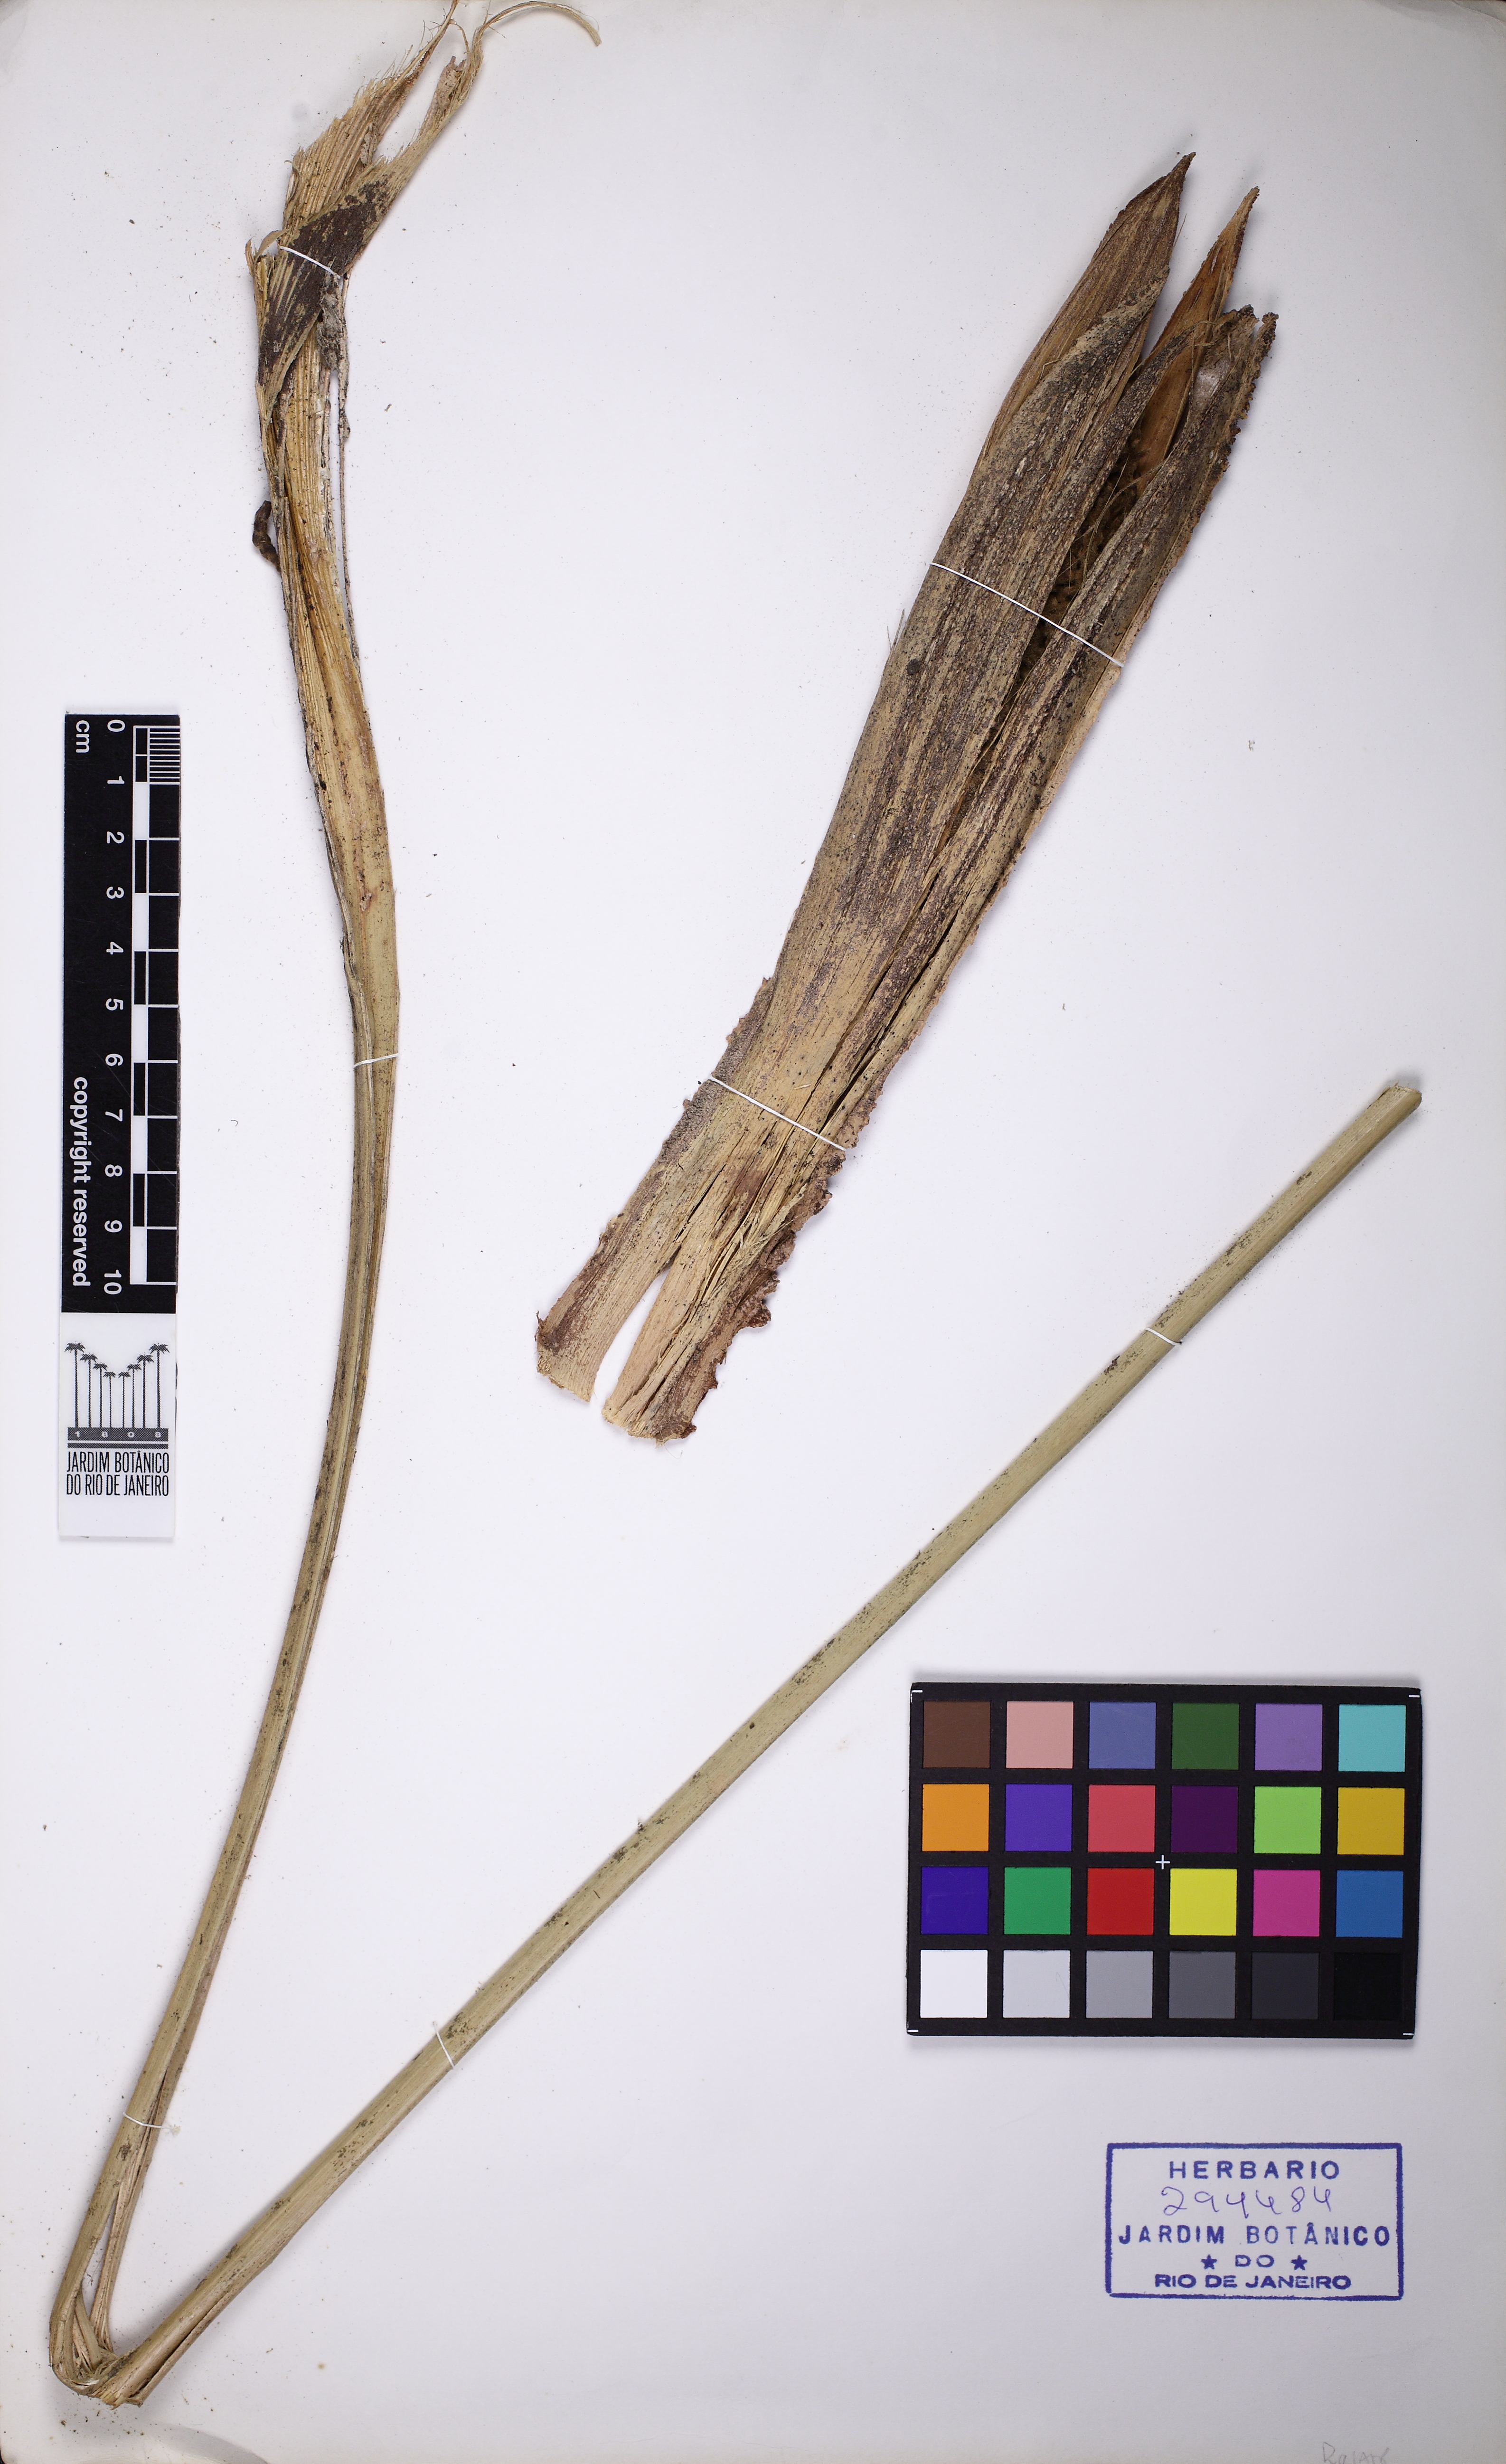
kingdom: Plantae
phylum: Tracheophyta
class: Liliopsida
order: Arecales
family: Arecaceae
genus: Geonoma
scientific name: Geonoma pohliana
